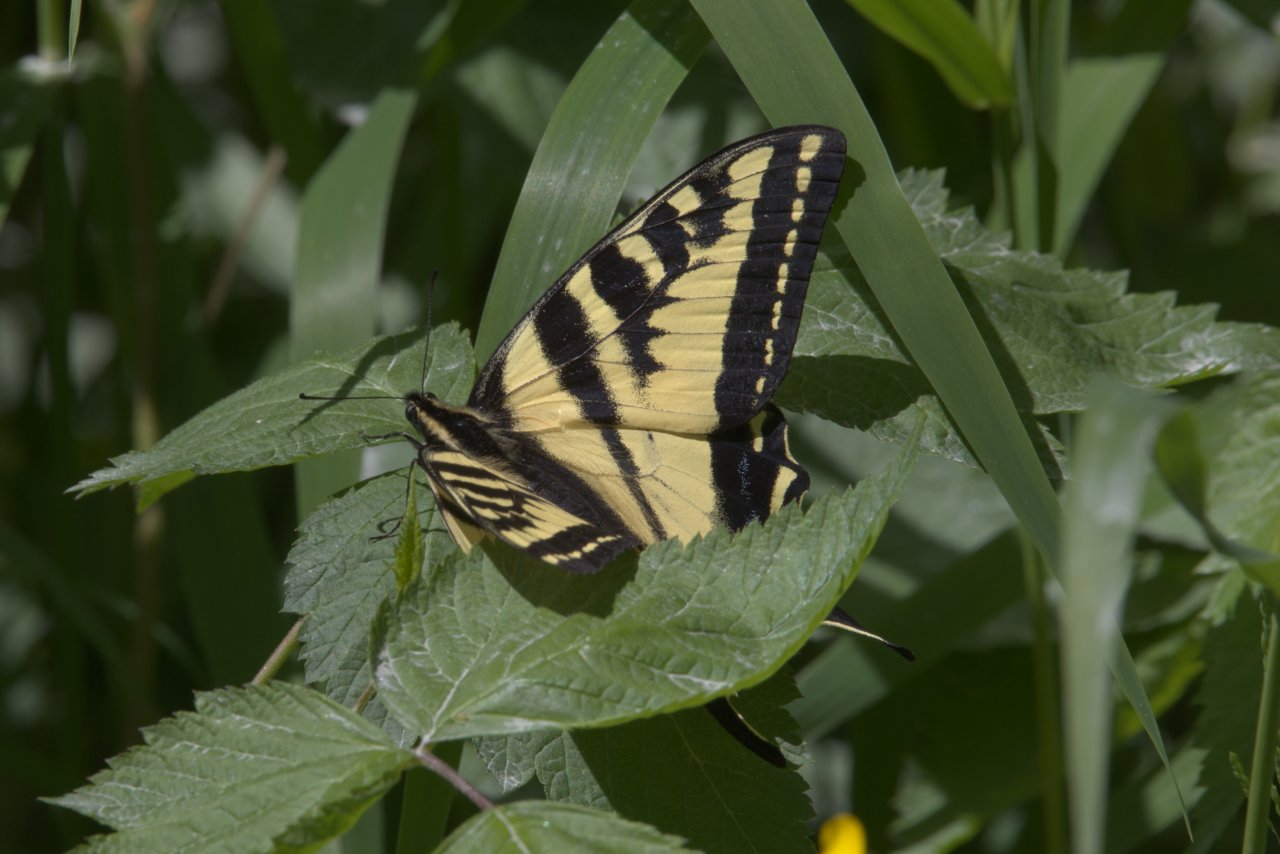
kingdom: Animalia
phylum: Arthropoda
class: Insecta
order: Lepidoptera
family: Papilionidae
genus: Pterourus
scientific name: Pterourus rutulus
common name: Western Tiger Swallowtail
